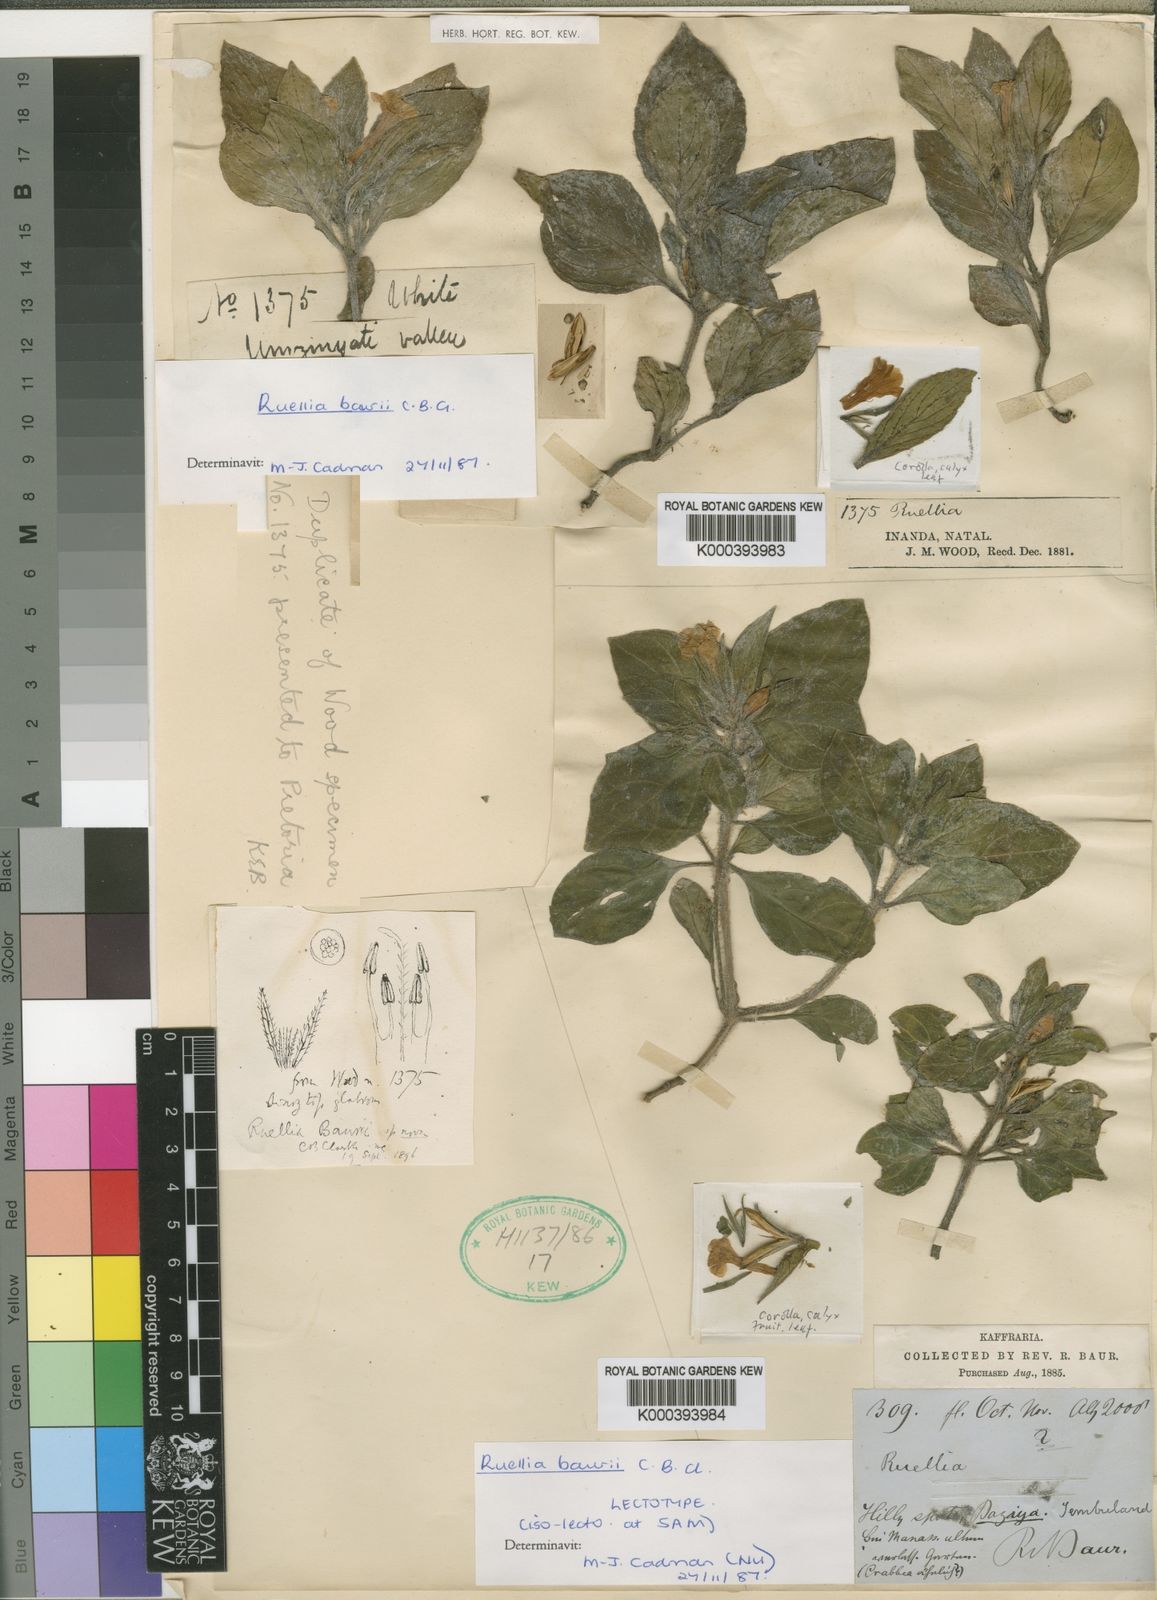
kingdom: Plantae
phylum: Tracheophyta
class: Magnoliopsida
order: Lamiales
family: Acanthaceae
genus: Ruellia
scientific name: Ruellia baurii
